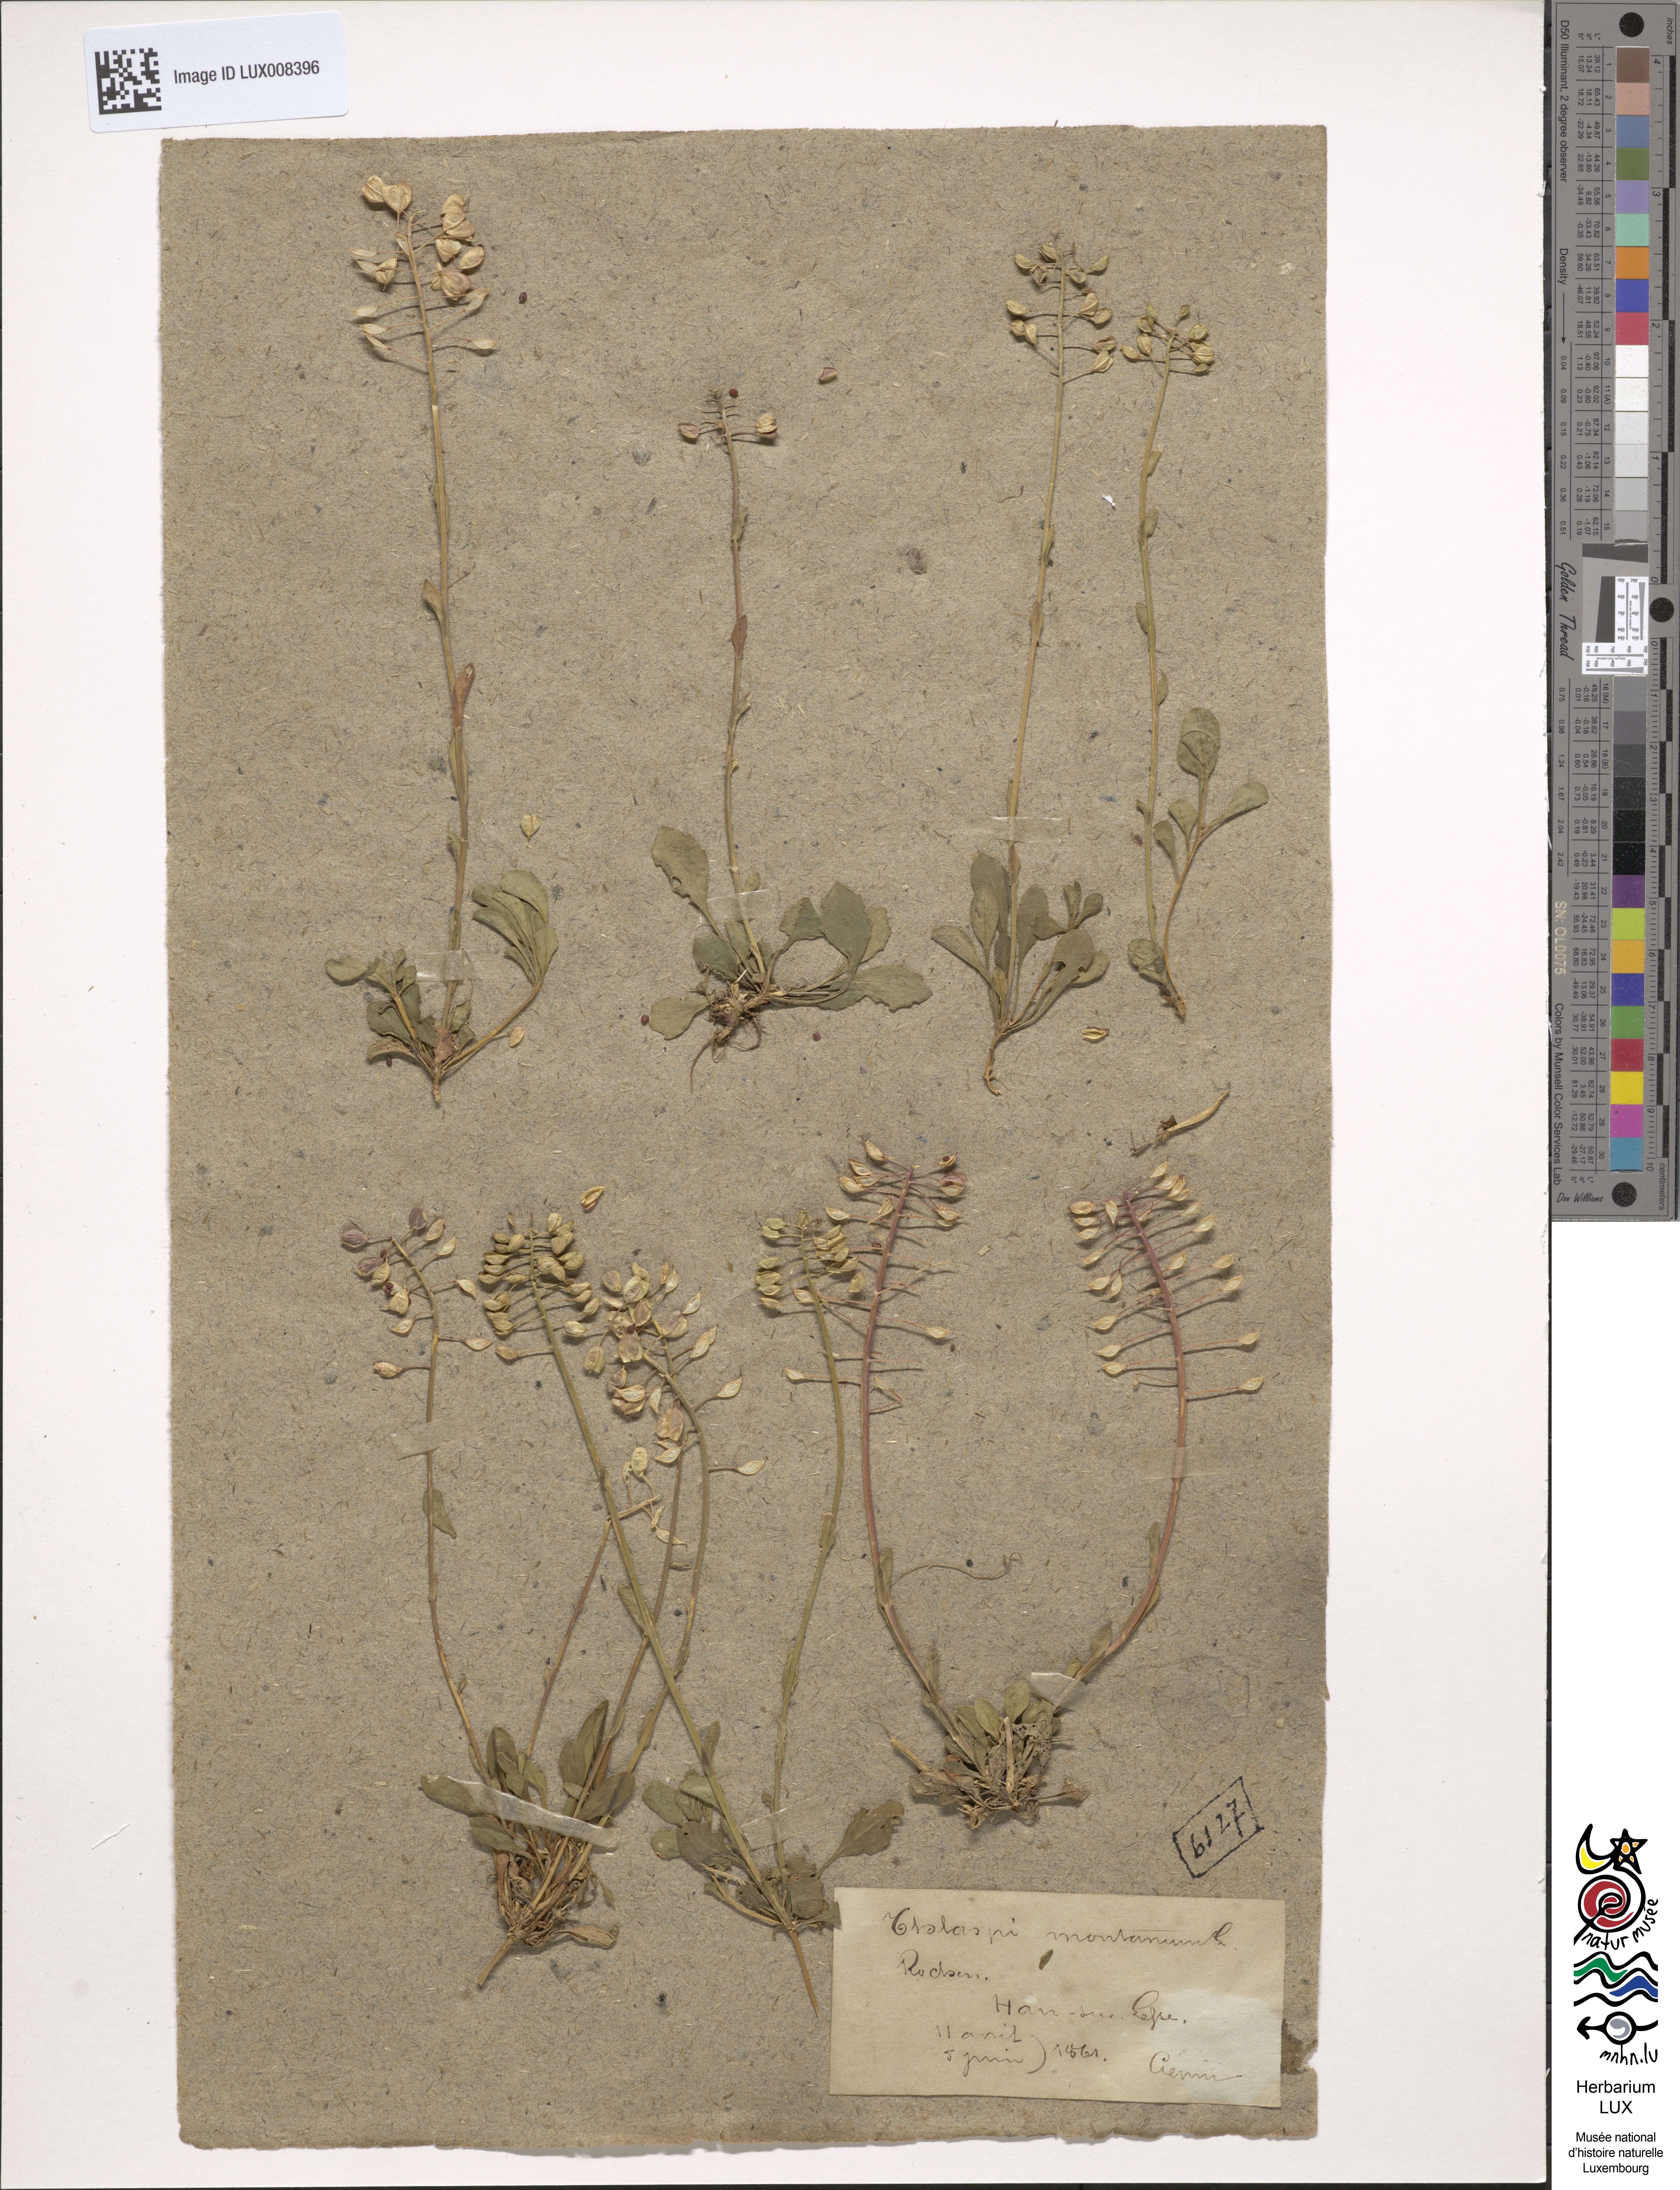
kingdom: Plantae
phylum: Tracheophyta
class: Magnoliopsida
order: Brassicales
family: Brassicaceae
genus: Noccaea
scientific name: Noccaea montana
